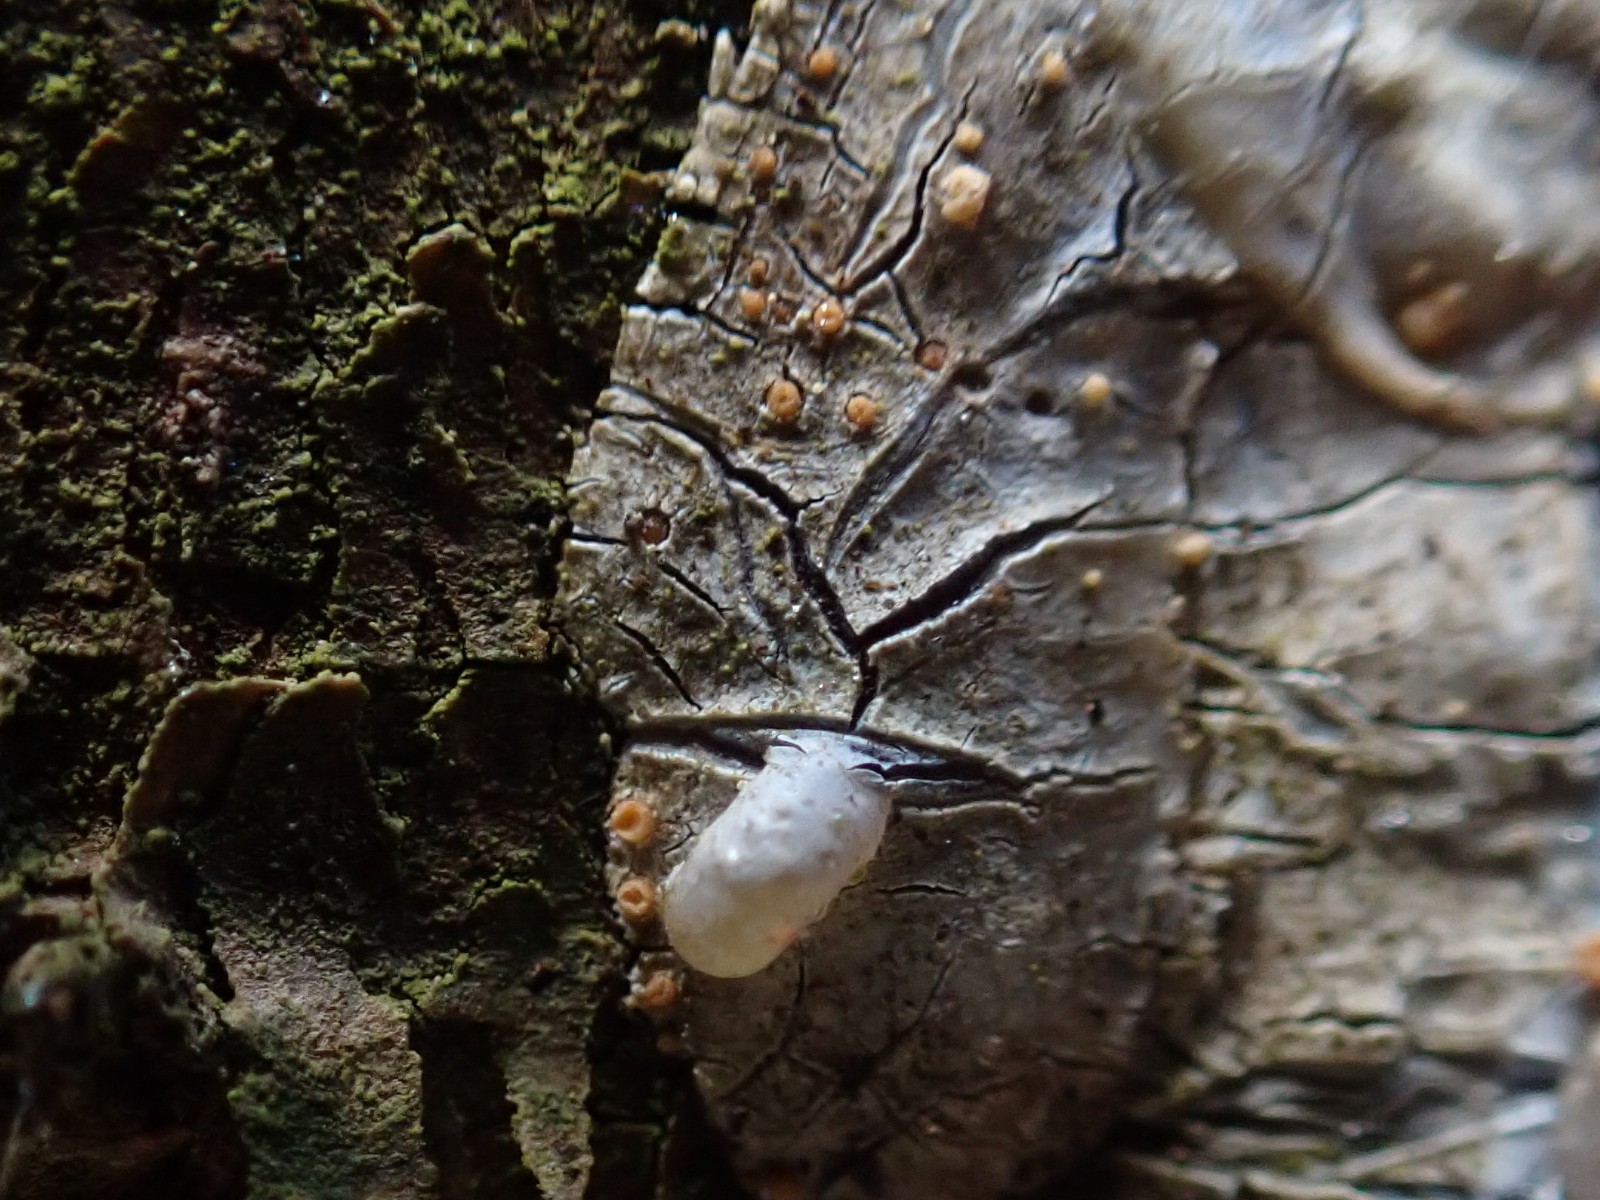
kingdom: Fungi
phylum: Ascomycota
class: Sareomycetes
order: Sareales
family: Sareaceae
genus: Sarea
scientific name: Sarea resinae
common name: orangegul harpiksskive
